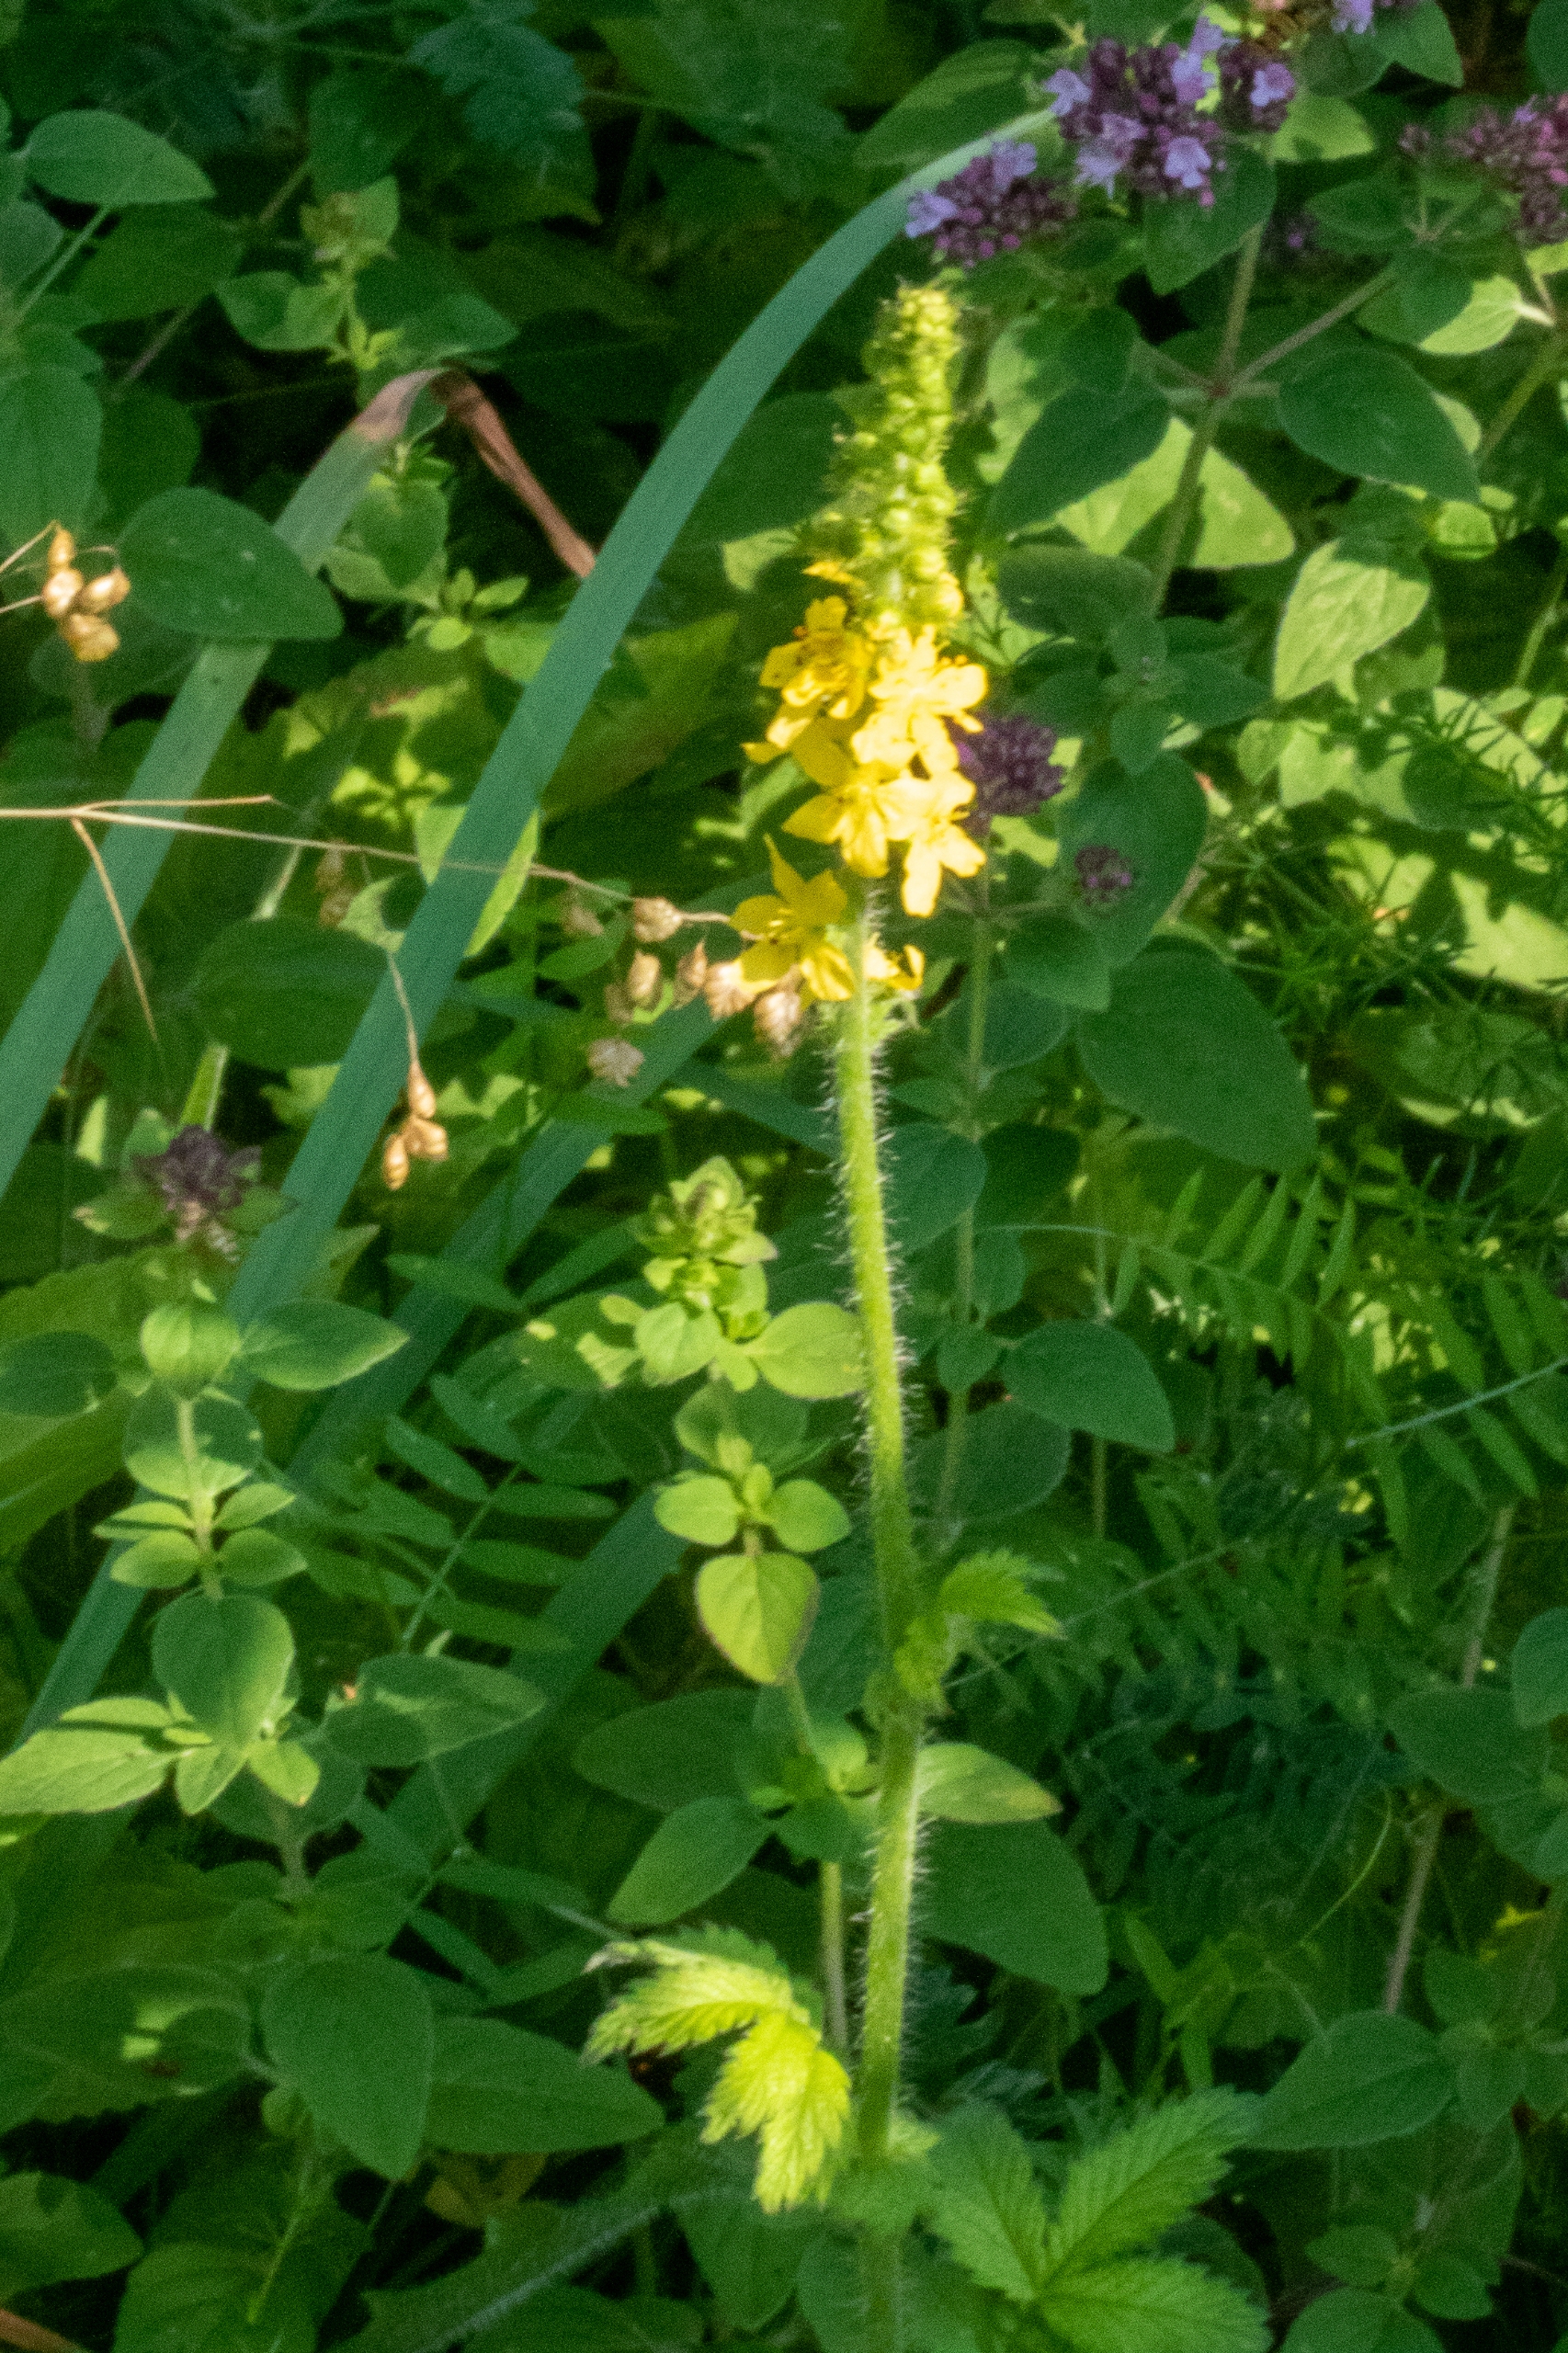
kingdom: Plantae
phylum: Tracheophyta
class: Magnoliopsida
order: Rosales
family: Rosaceae
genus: Agrimonia
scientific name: Agrimonia eupatoria
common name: Almindelig agermåne
